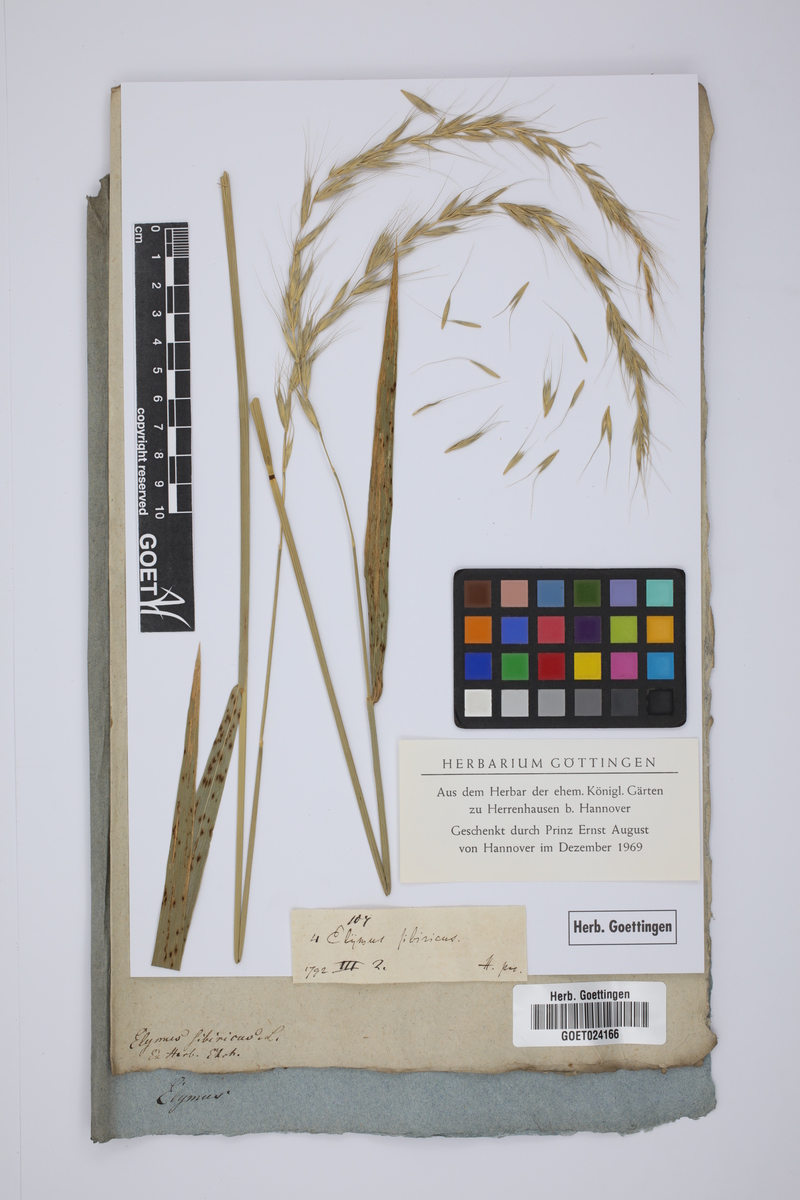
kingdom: Plantae
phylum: Tracheophyta
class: Liliopsida
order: Poales
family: Poaceae
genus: Elymus
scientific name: Elymus sibiricus
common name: Siberian wildrye
